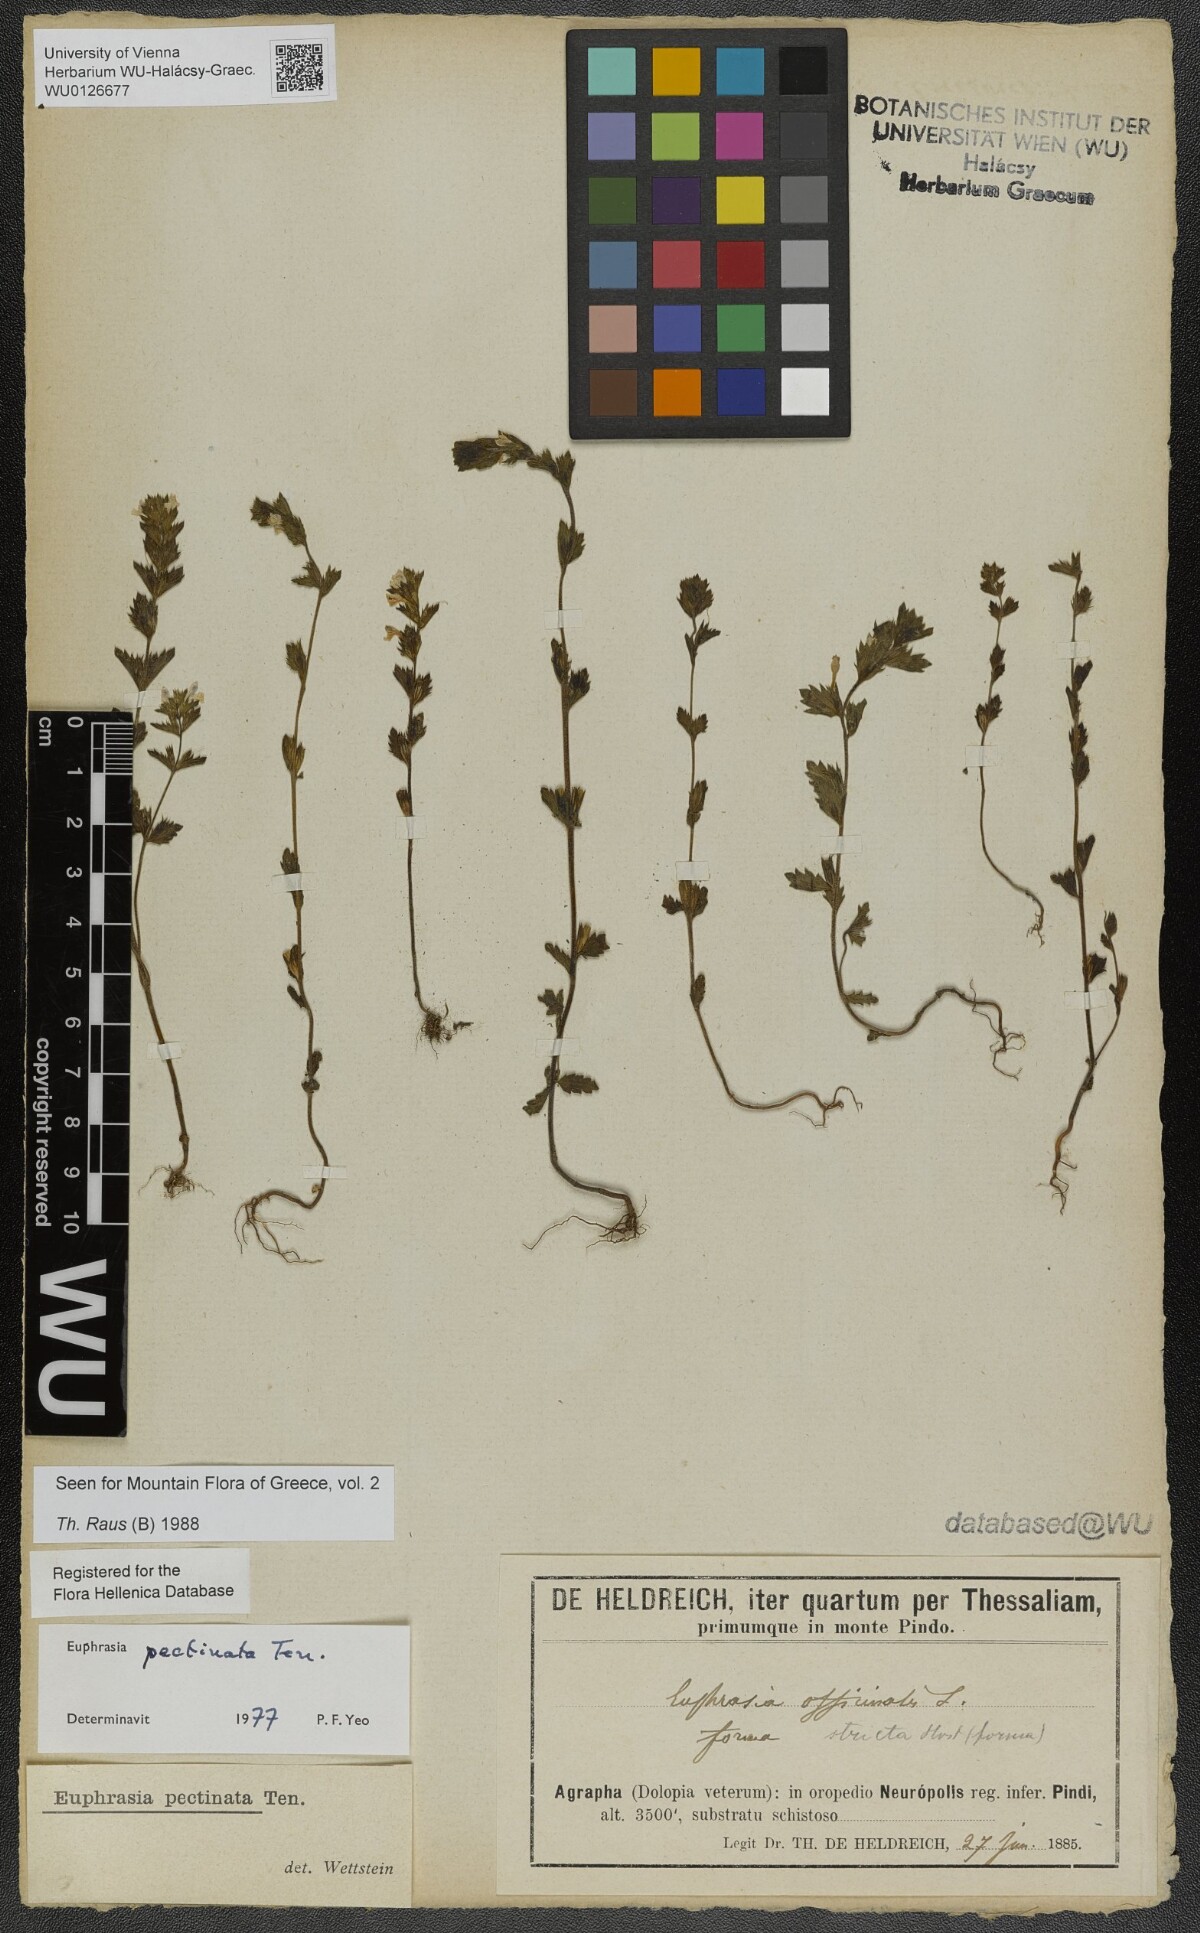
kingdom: Plantae
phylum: Tracheophyta
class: Magnoliopsida
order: Lamiales
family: Orobanchaceae
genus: Euphrasia
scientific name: Euphrasia pectinata
